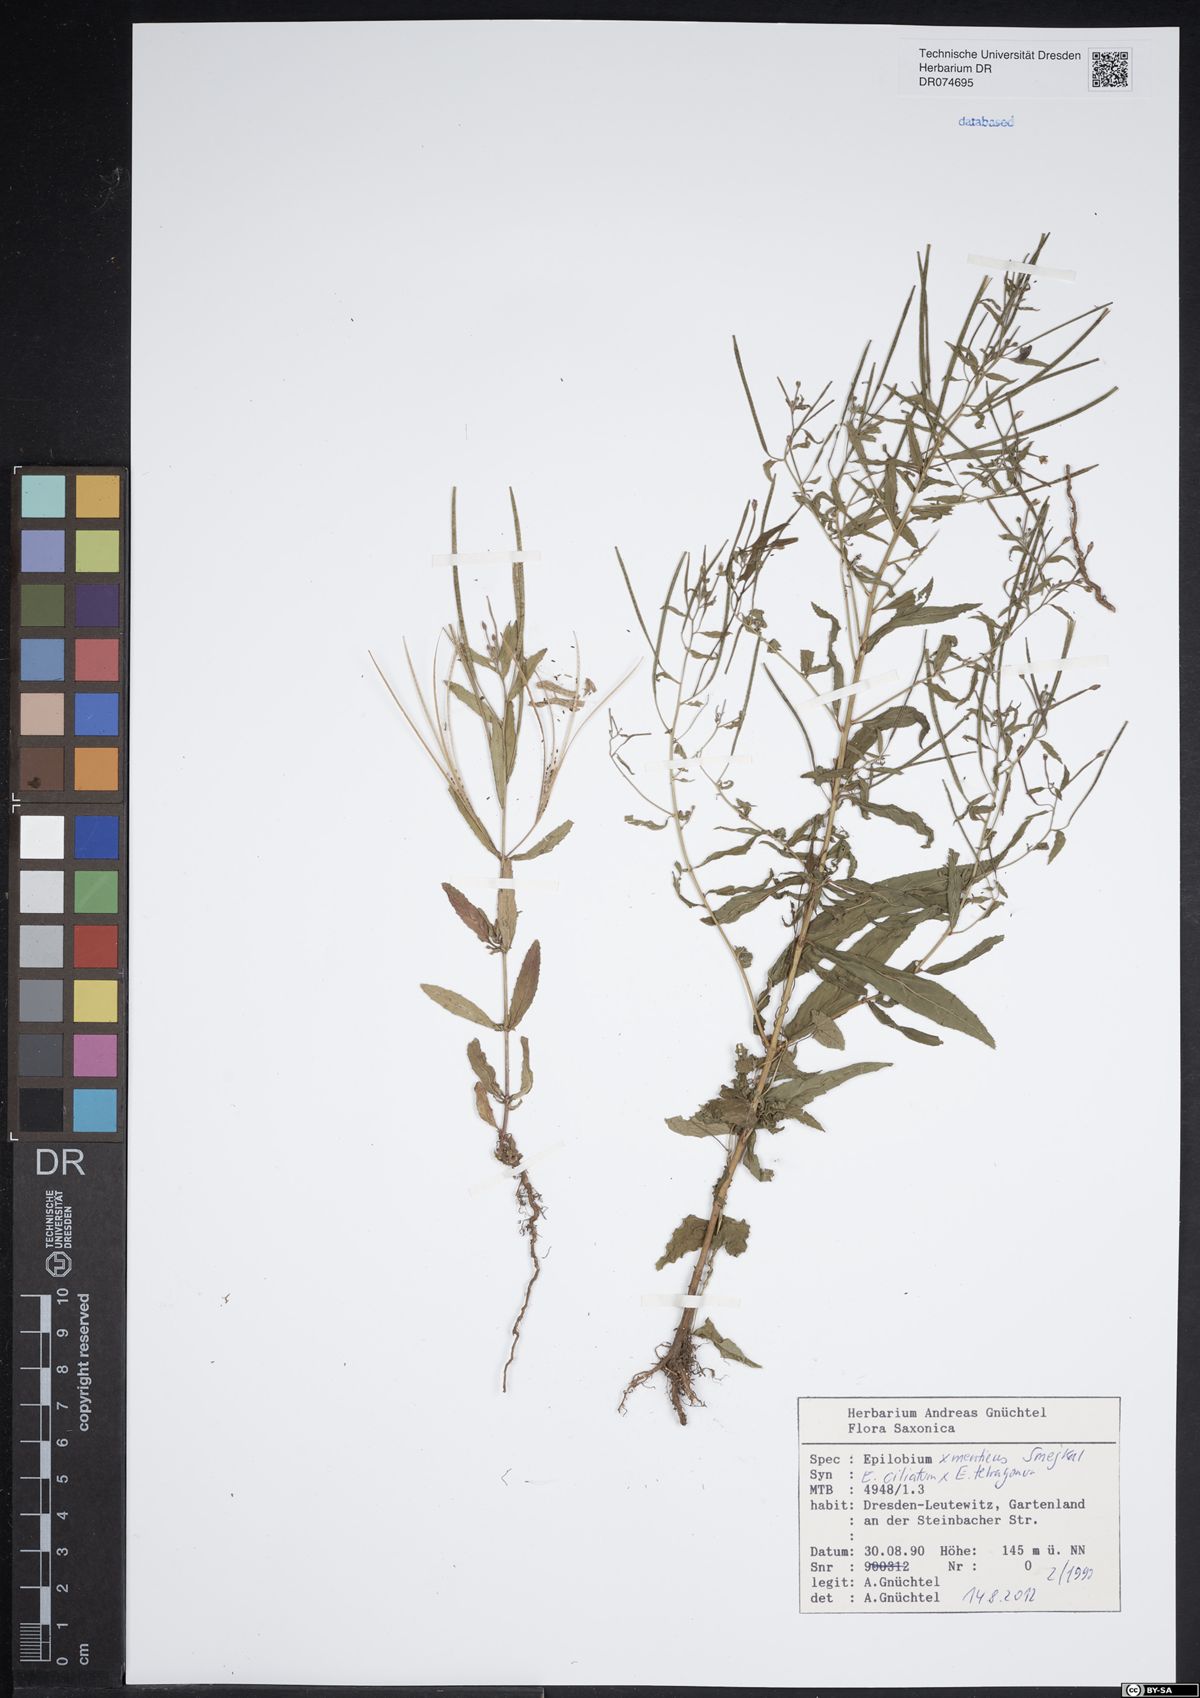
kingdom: Plantae
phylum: Tracheophyta
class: Magnoliopsida
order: Myrtales
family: Onagraceae
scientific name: Onagraceae
